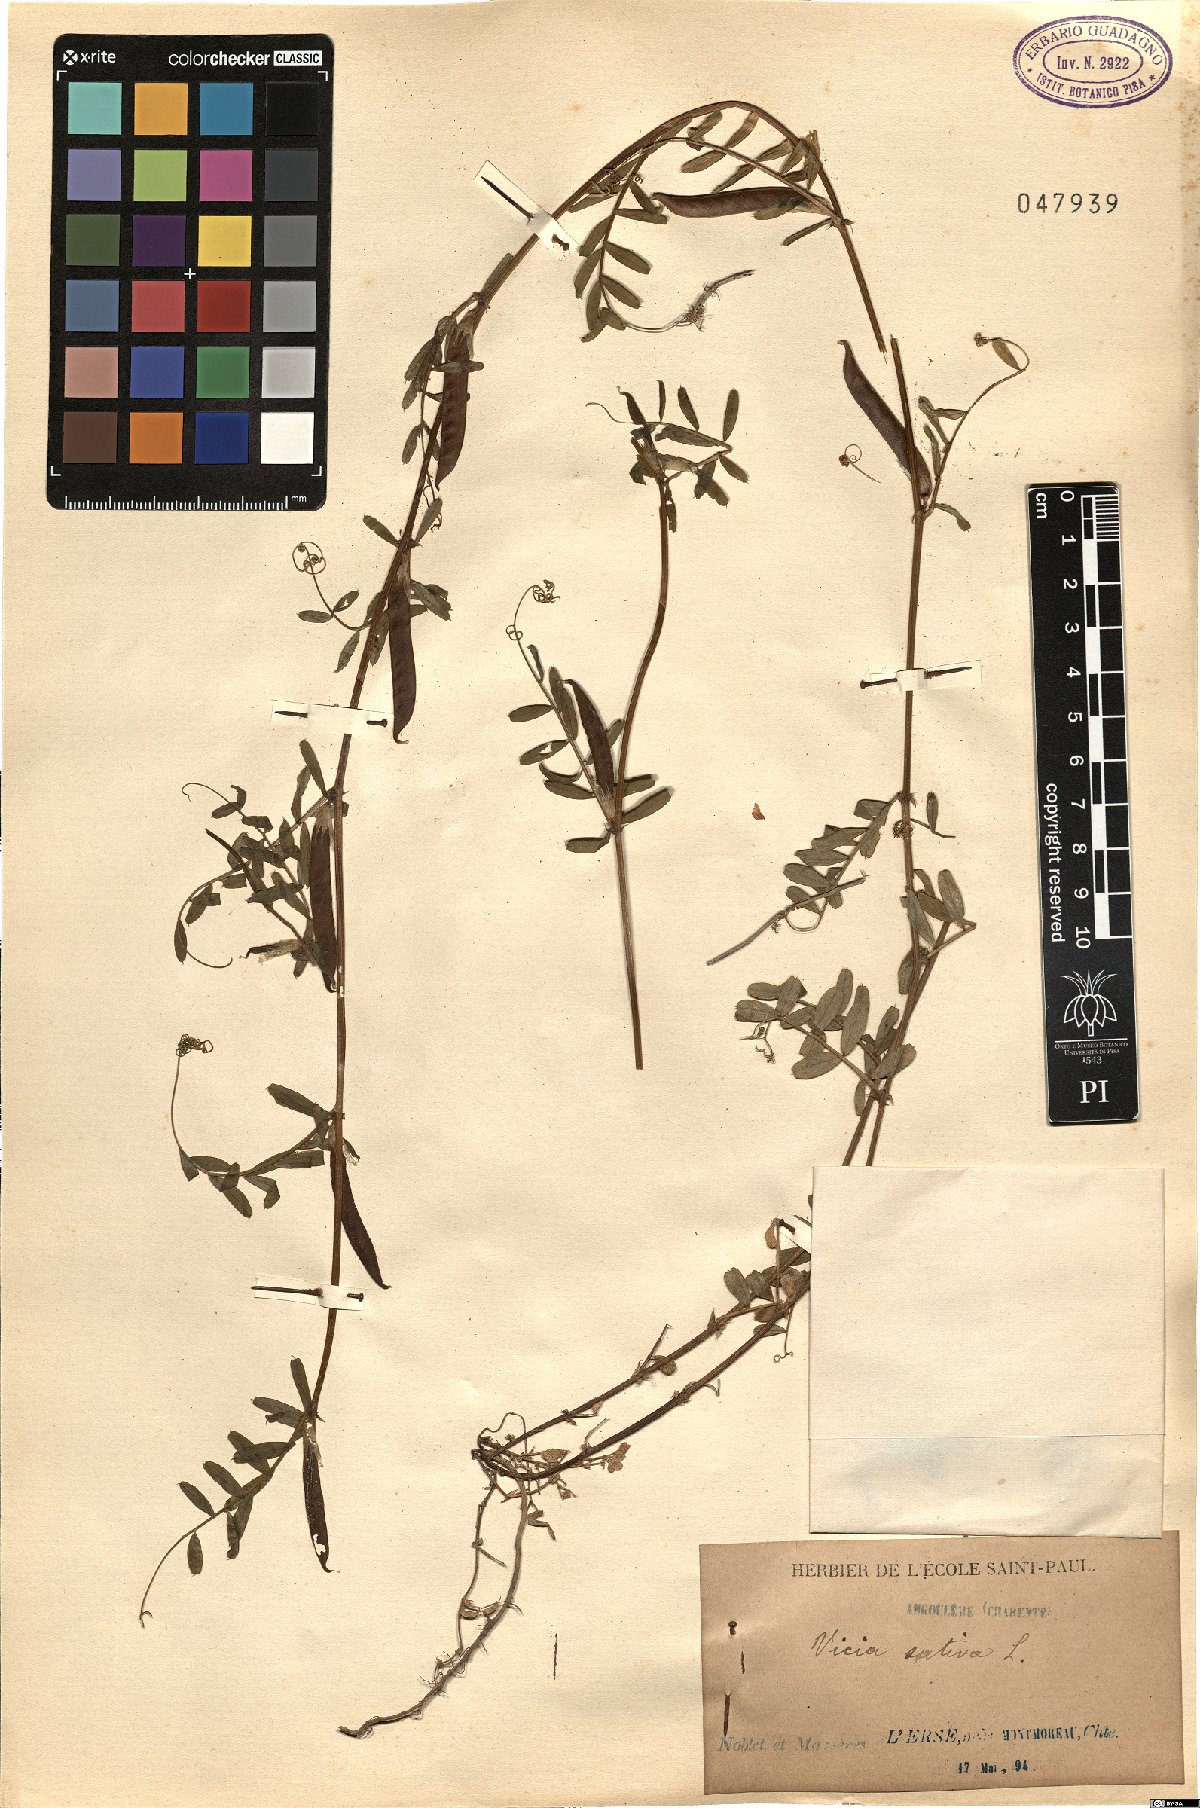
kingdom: Plantae
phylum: Tracheophyta
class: Magnoliopsida
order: Fabales
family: Fabaceae
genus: Vicia
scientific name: Vicia sativa
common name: Garden vetch
